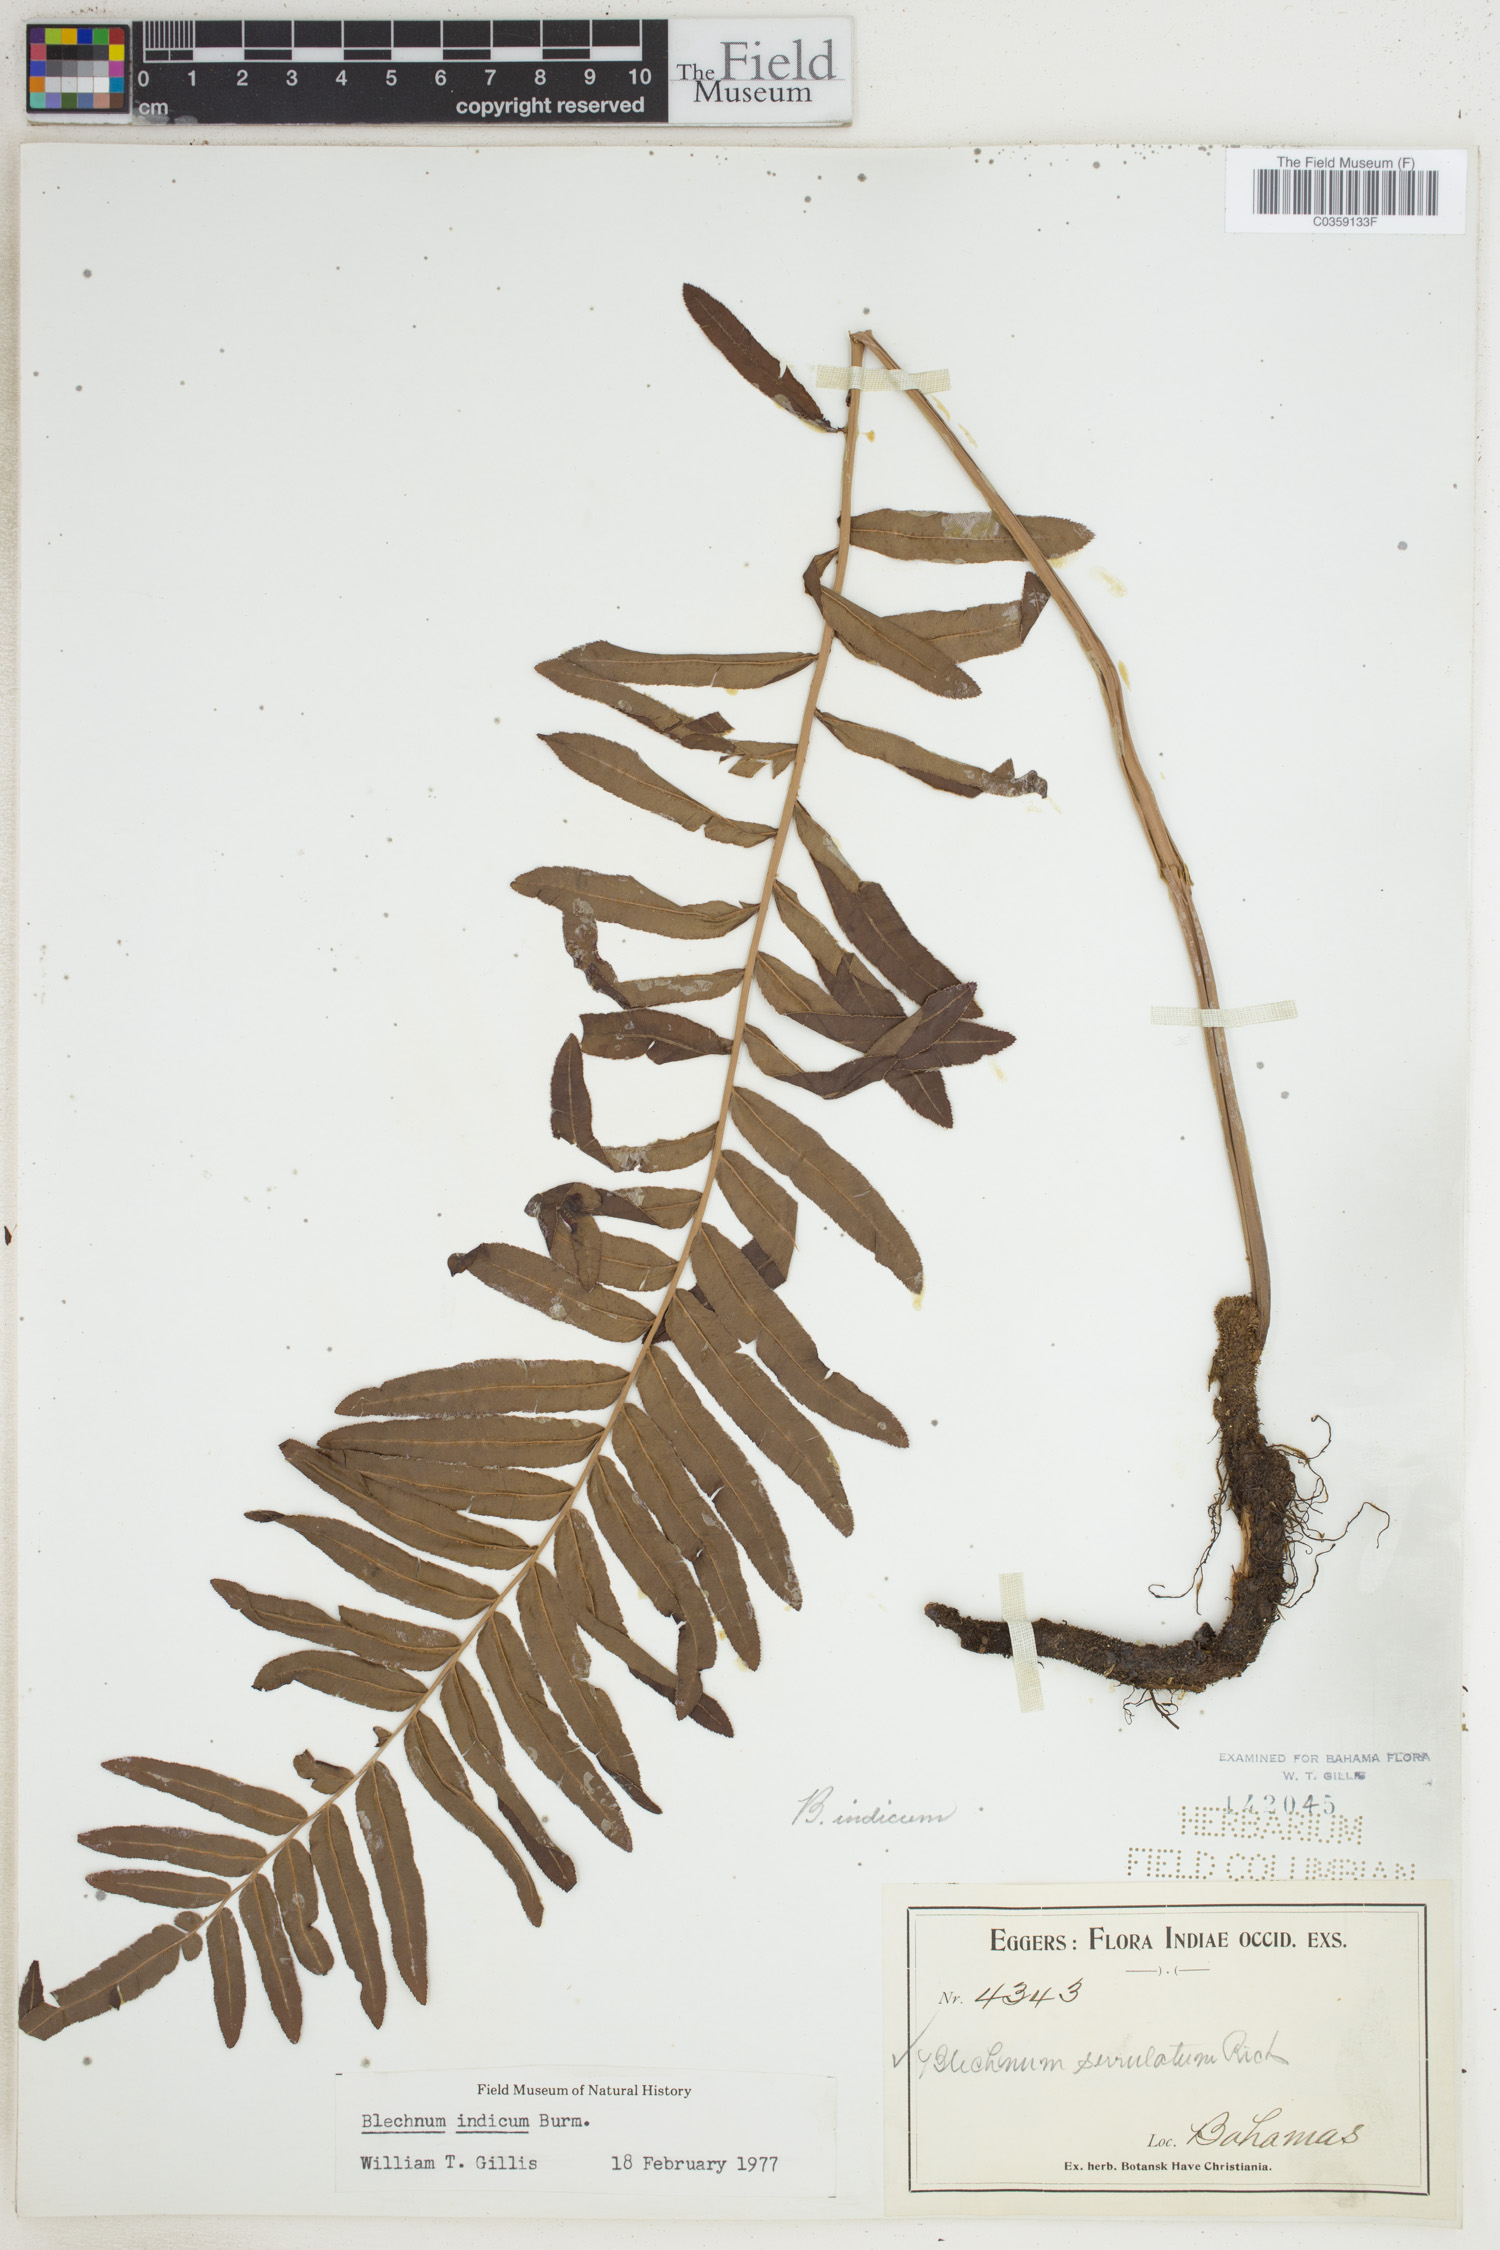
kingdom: Plantae
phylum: Tracheophyta
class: Polypodiopsida
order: Polypodiales
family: Blechnaceae
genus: Telmatoblechnum
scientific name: Telmatoblechnum indicum
